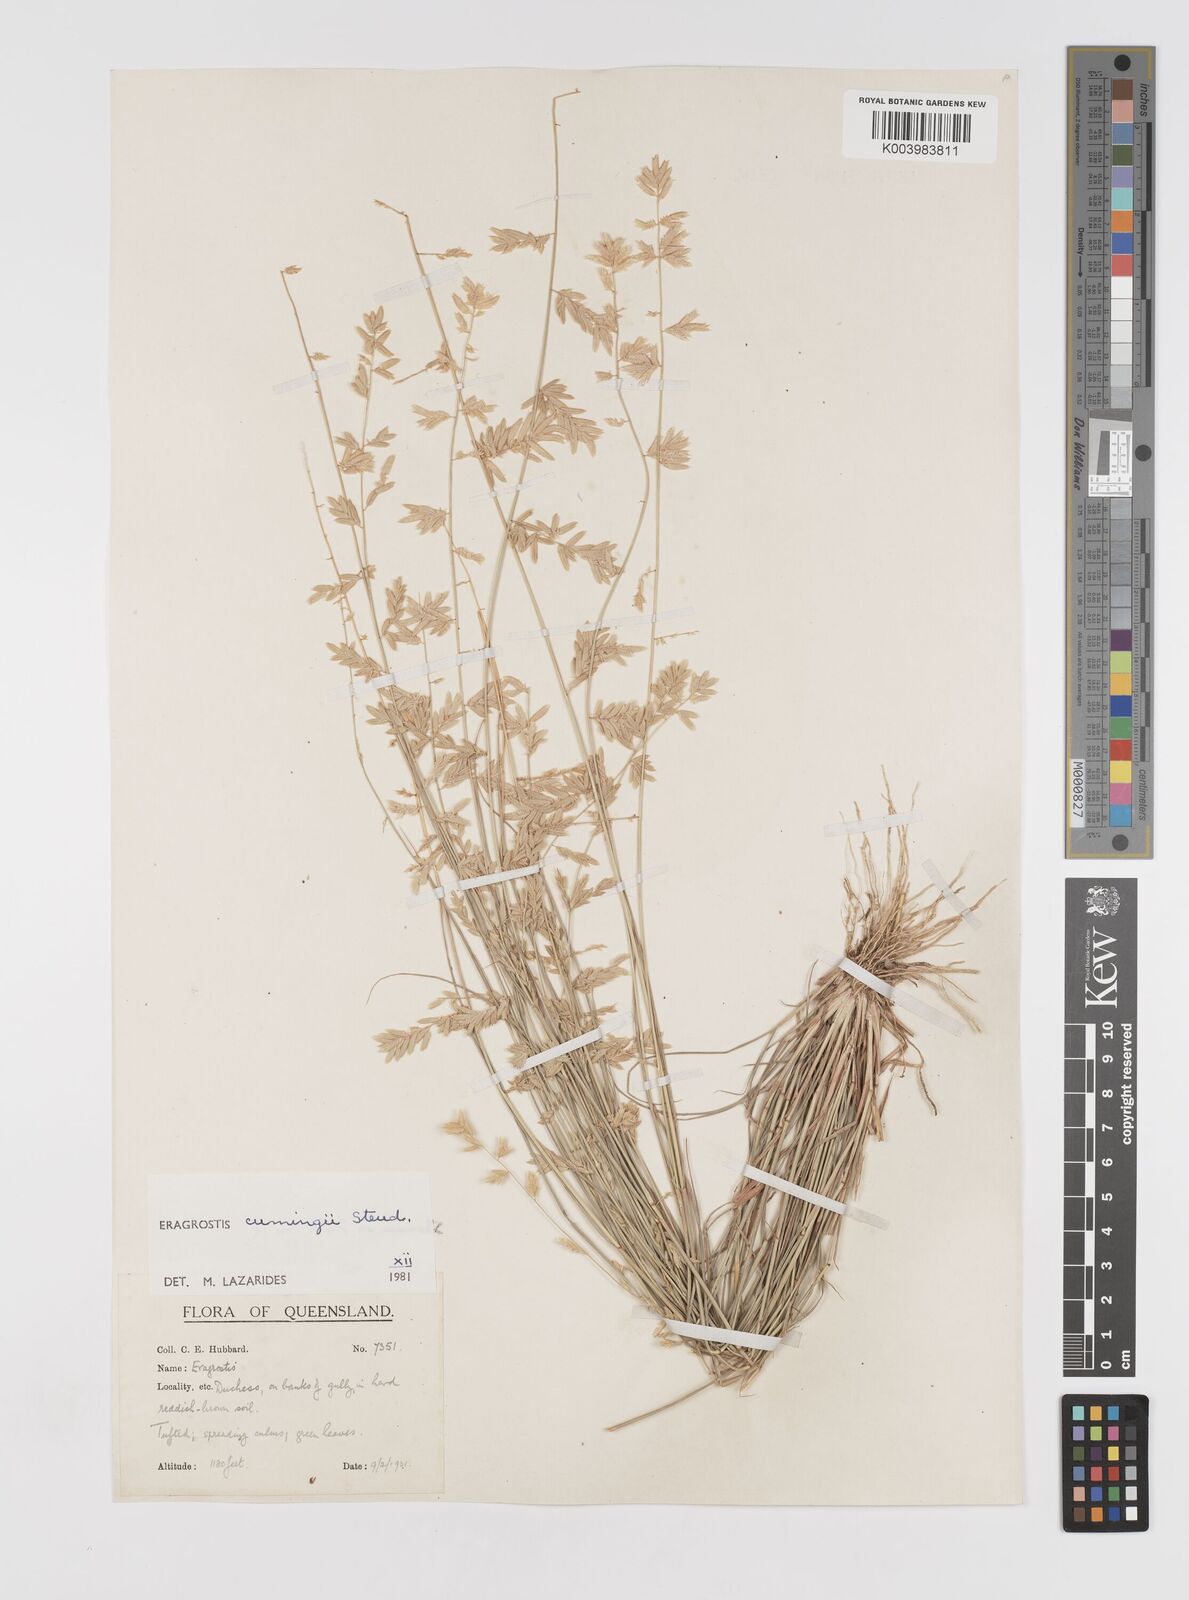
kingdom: Plantae
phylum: Tracheophyta
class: Liliopsida
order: Poales
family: Poaceae
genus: Eragrostis
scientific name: Eragrostis cumingii
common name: Cuming's lovegrass
